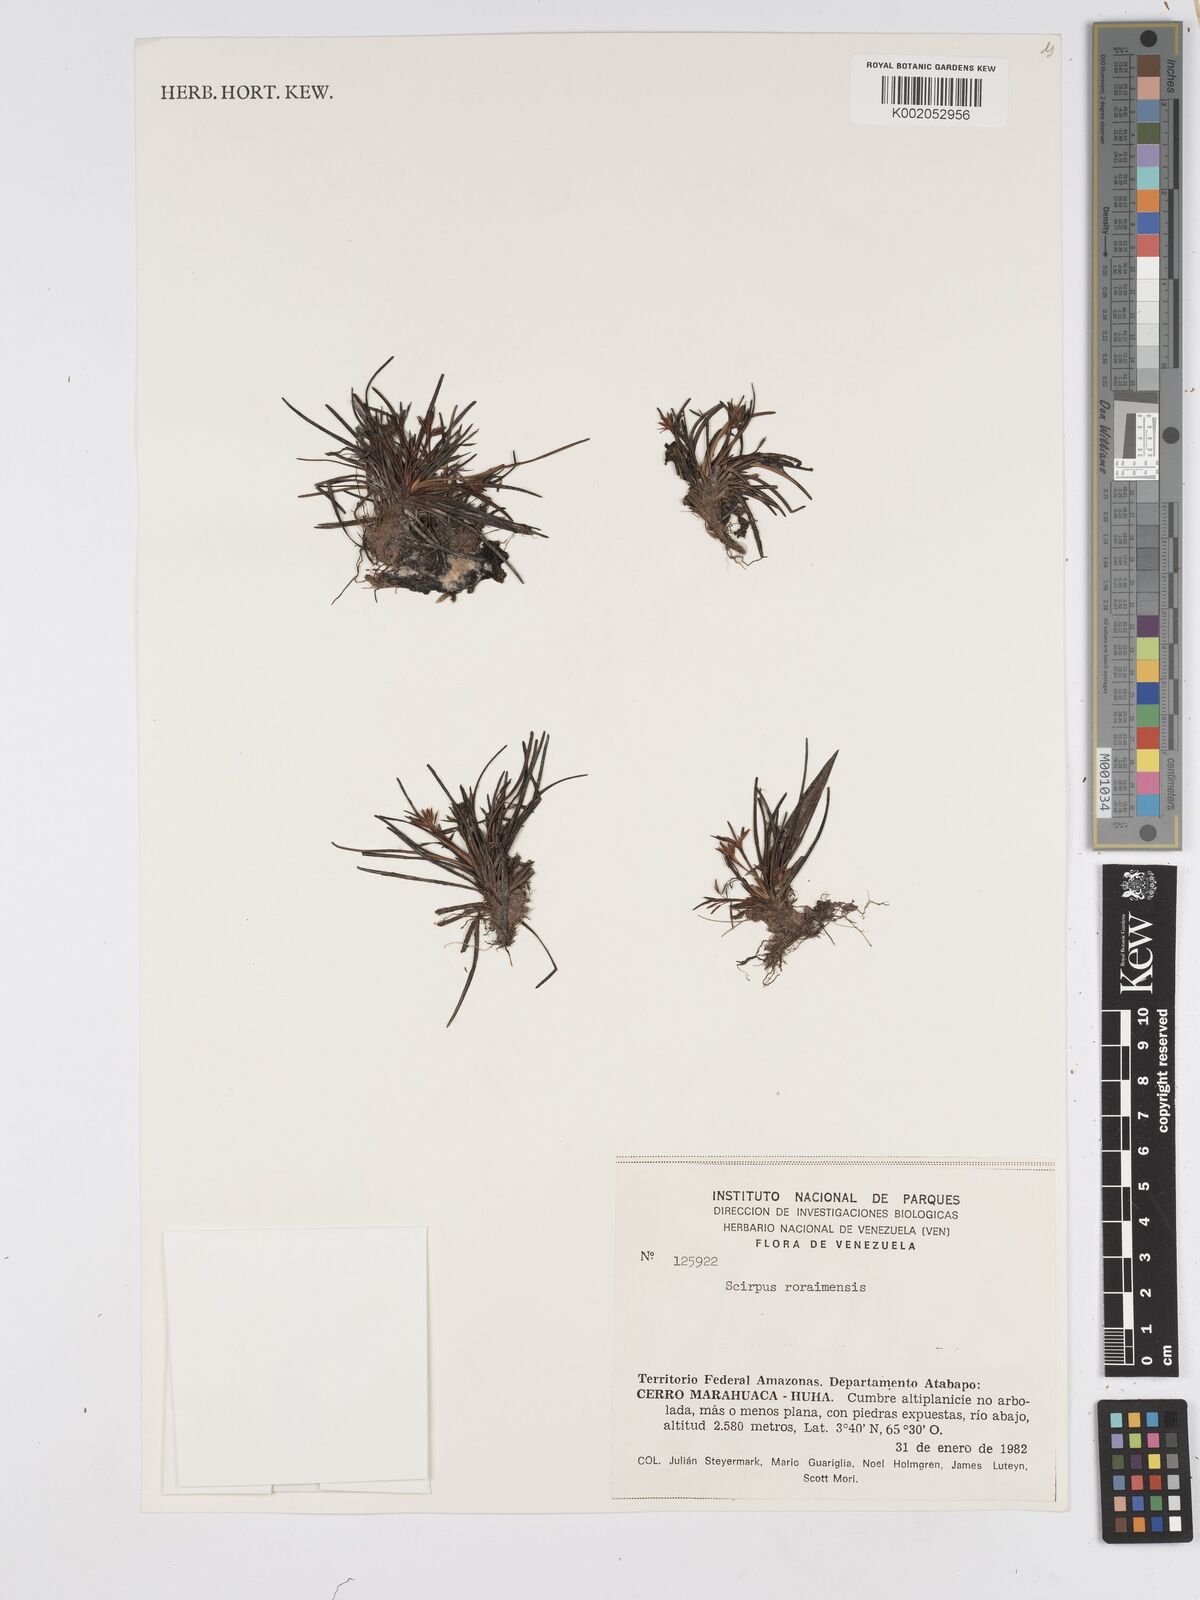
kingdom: Plantae
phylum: Tracheophyta
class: Liliopsida
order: Poales
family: Cyperaceae
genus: Scirpus
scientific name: Scirpus
